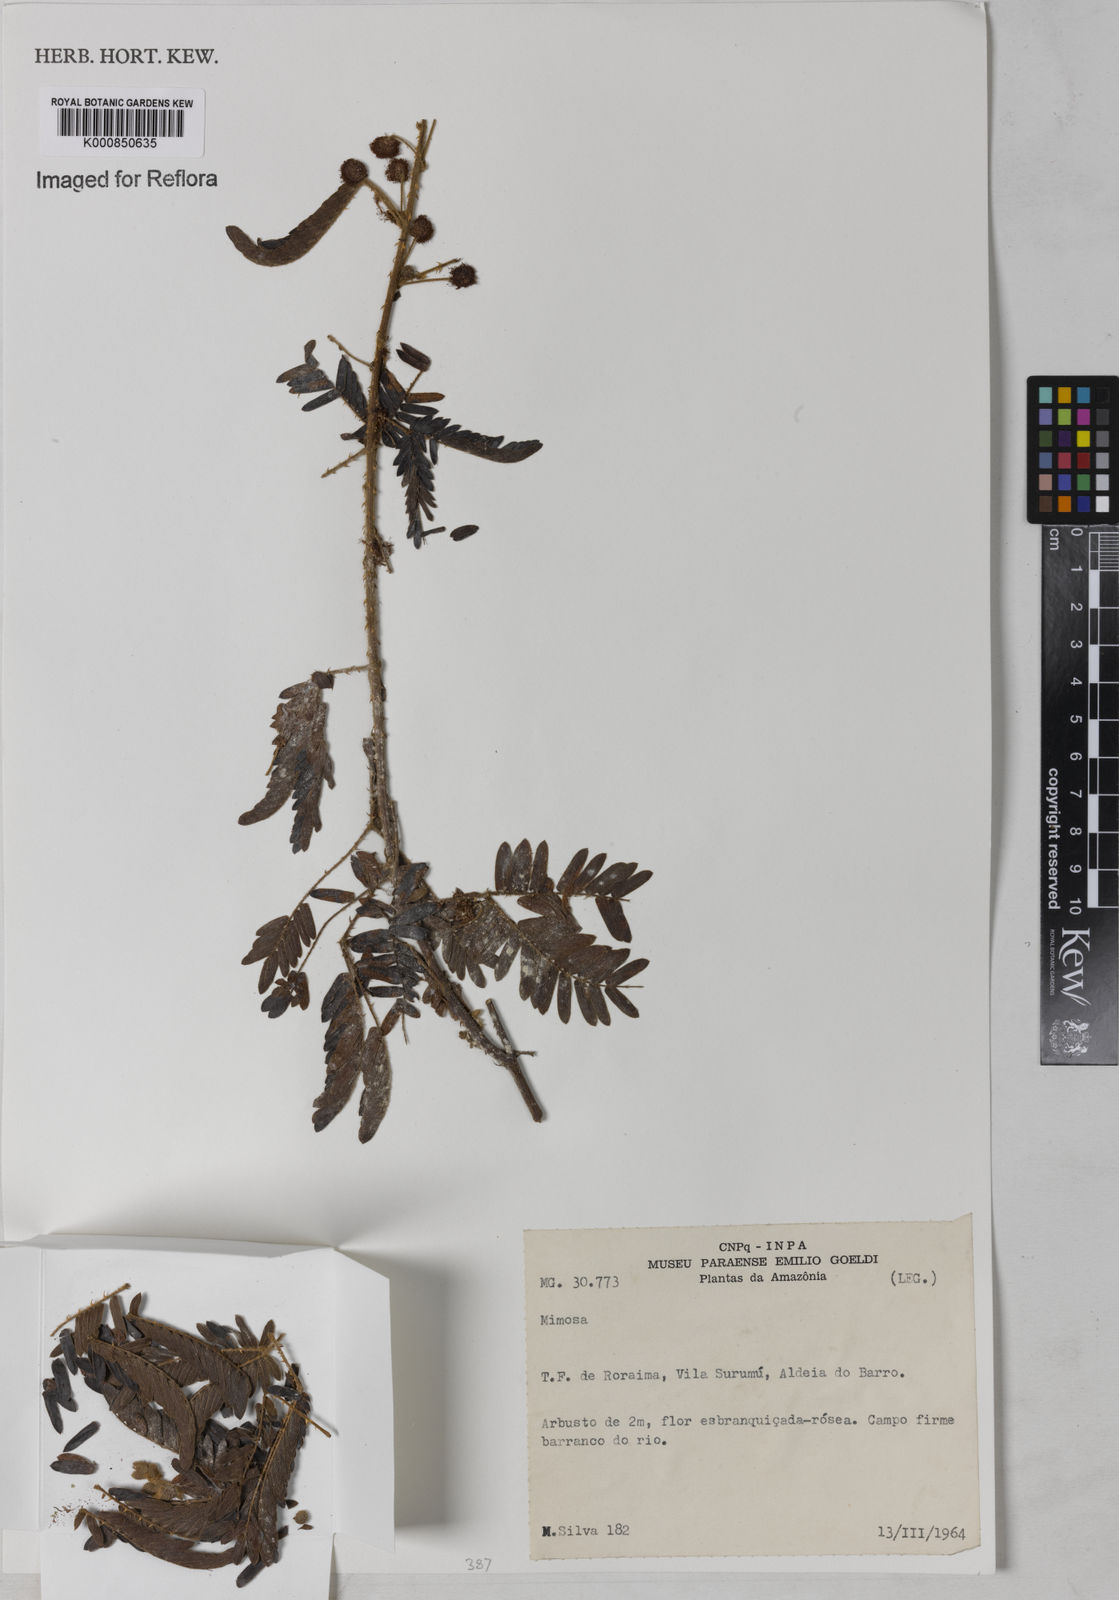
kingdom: Plantae
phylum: Tracheophyta
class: Magnoliopsida
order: Fabales
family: Fabaceae
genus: Mimosa
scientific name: Mimosa
